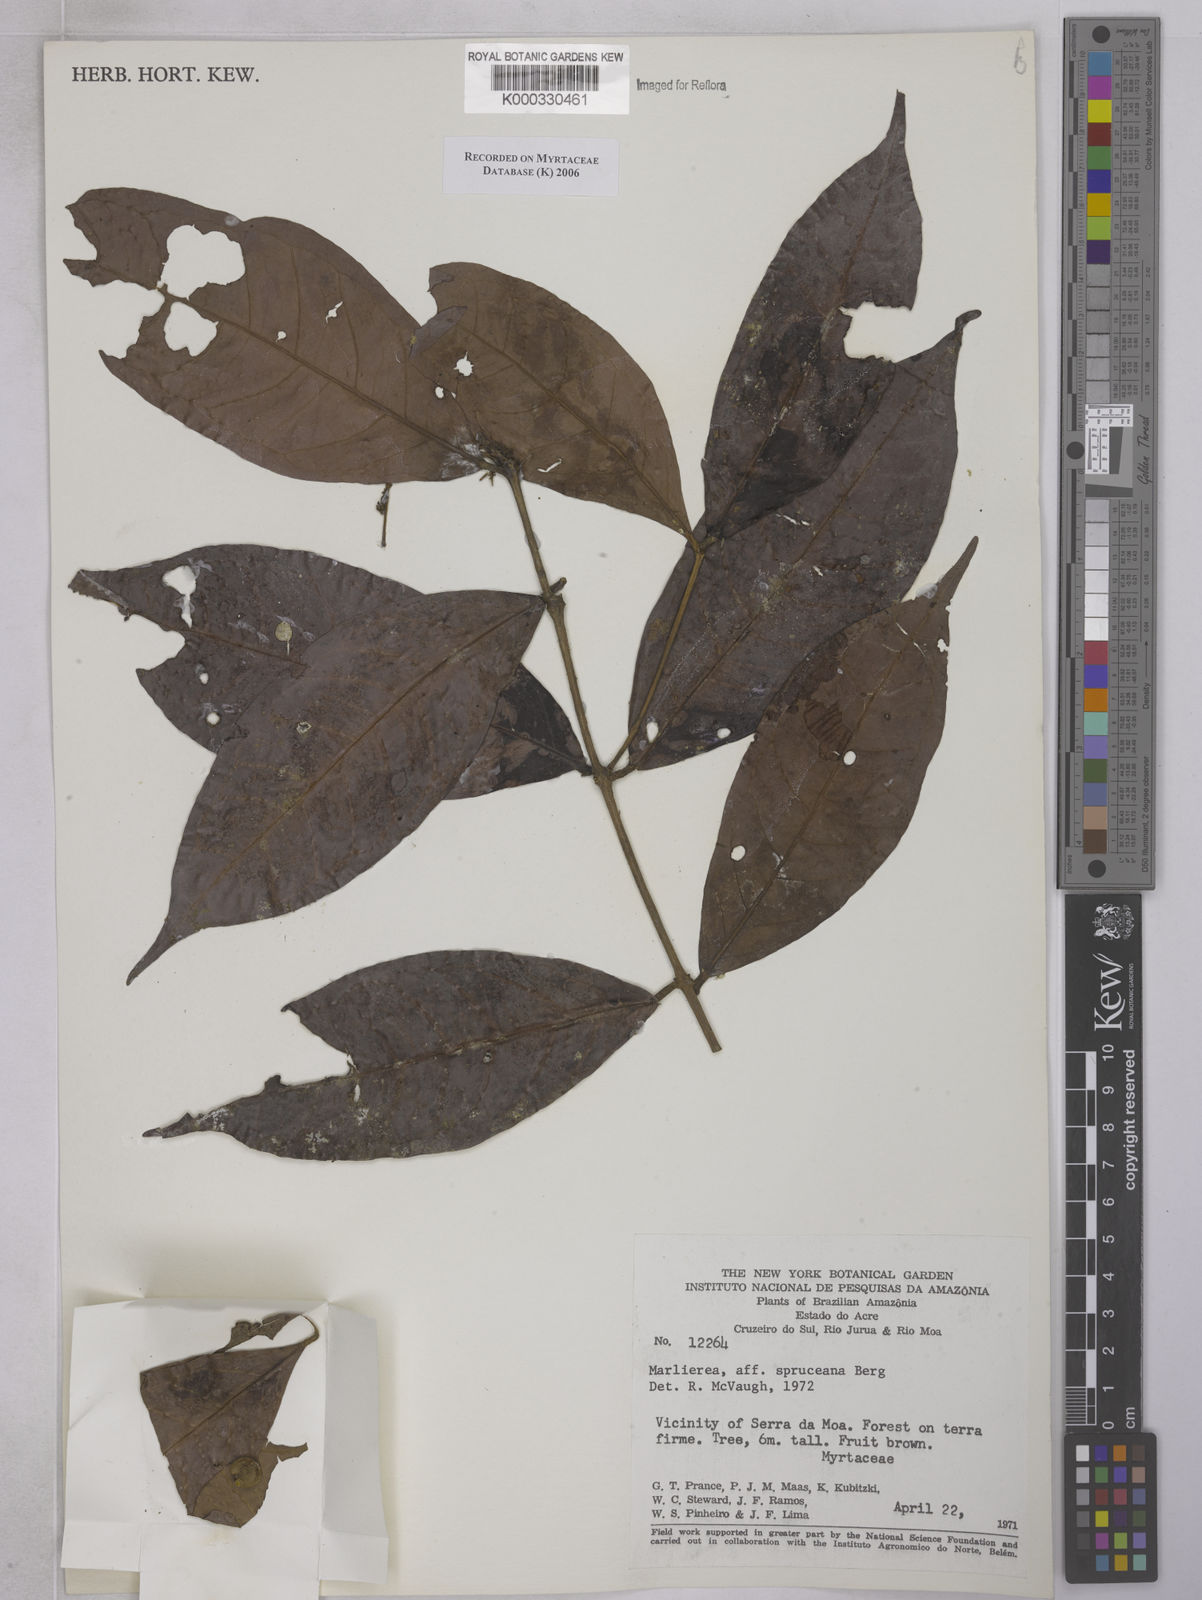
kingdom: Plantae
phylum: Tracheophyta
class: Magnoliopsida
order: Myrtales
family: Myrtaceae
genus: Myrcia
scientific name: Myrcia argentigemma
